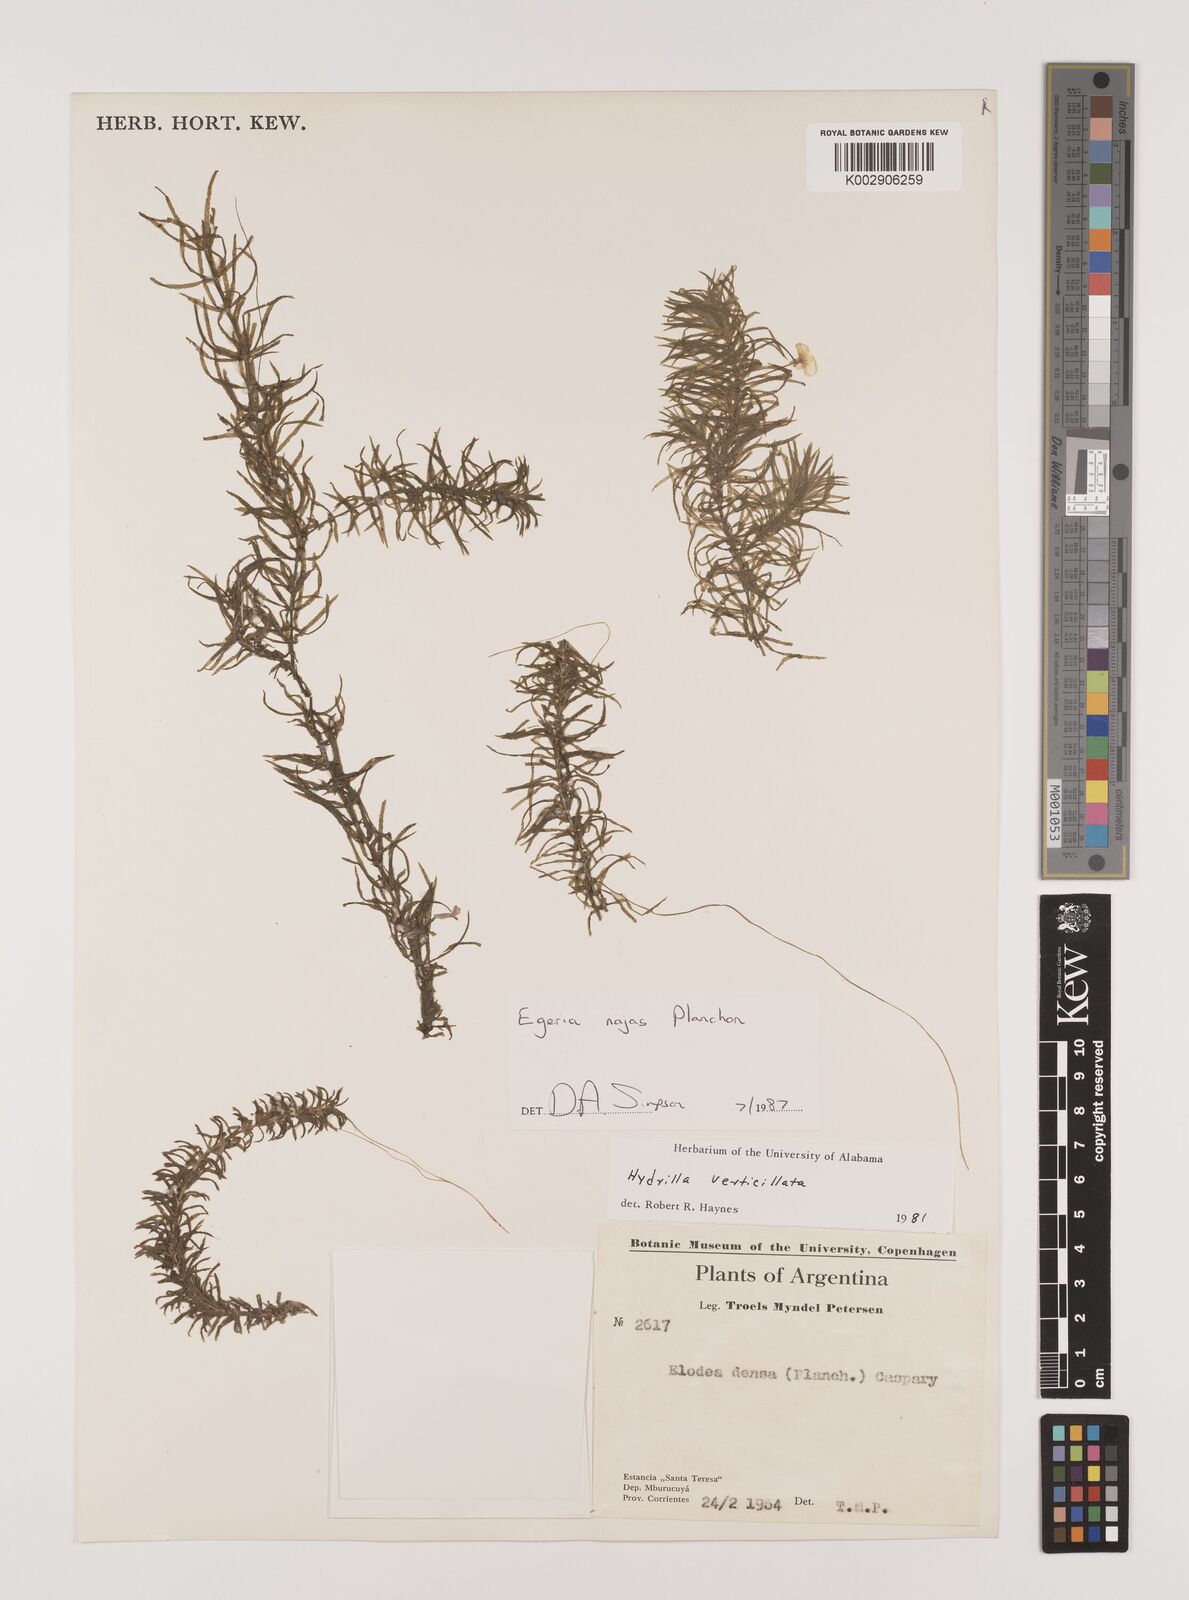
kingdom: Plantae
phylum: Tracheophyta
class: Liliopsida
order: Alismatales
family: Hydrocharitaceae
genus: Elodea
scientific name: Elodea najas
